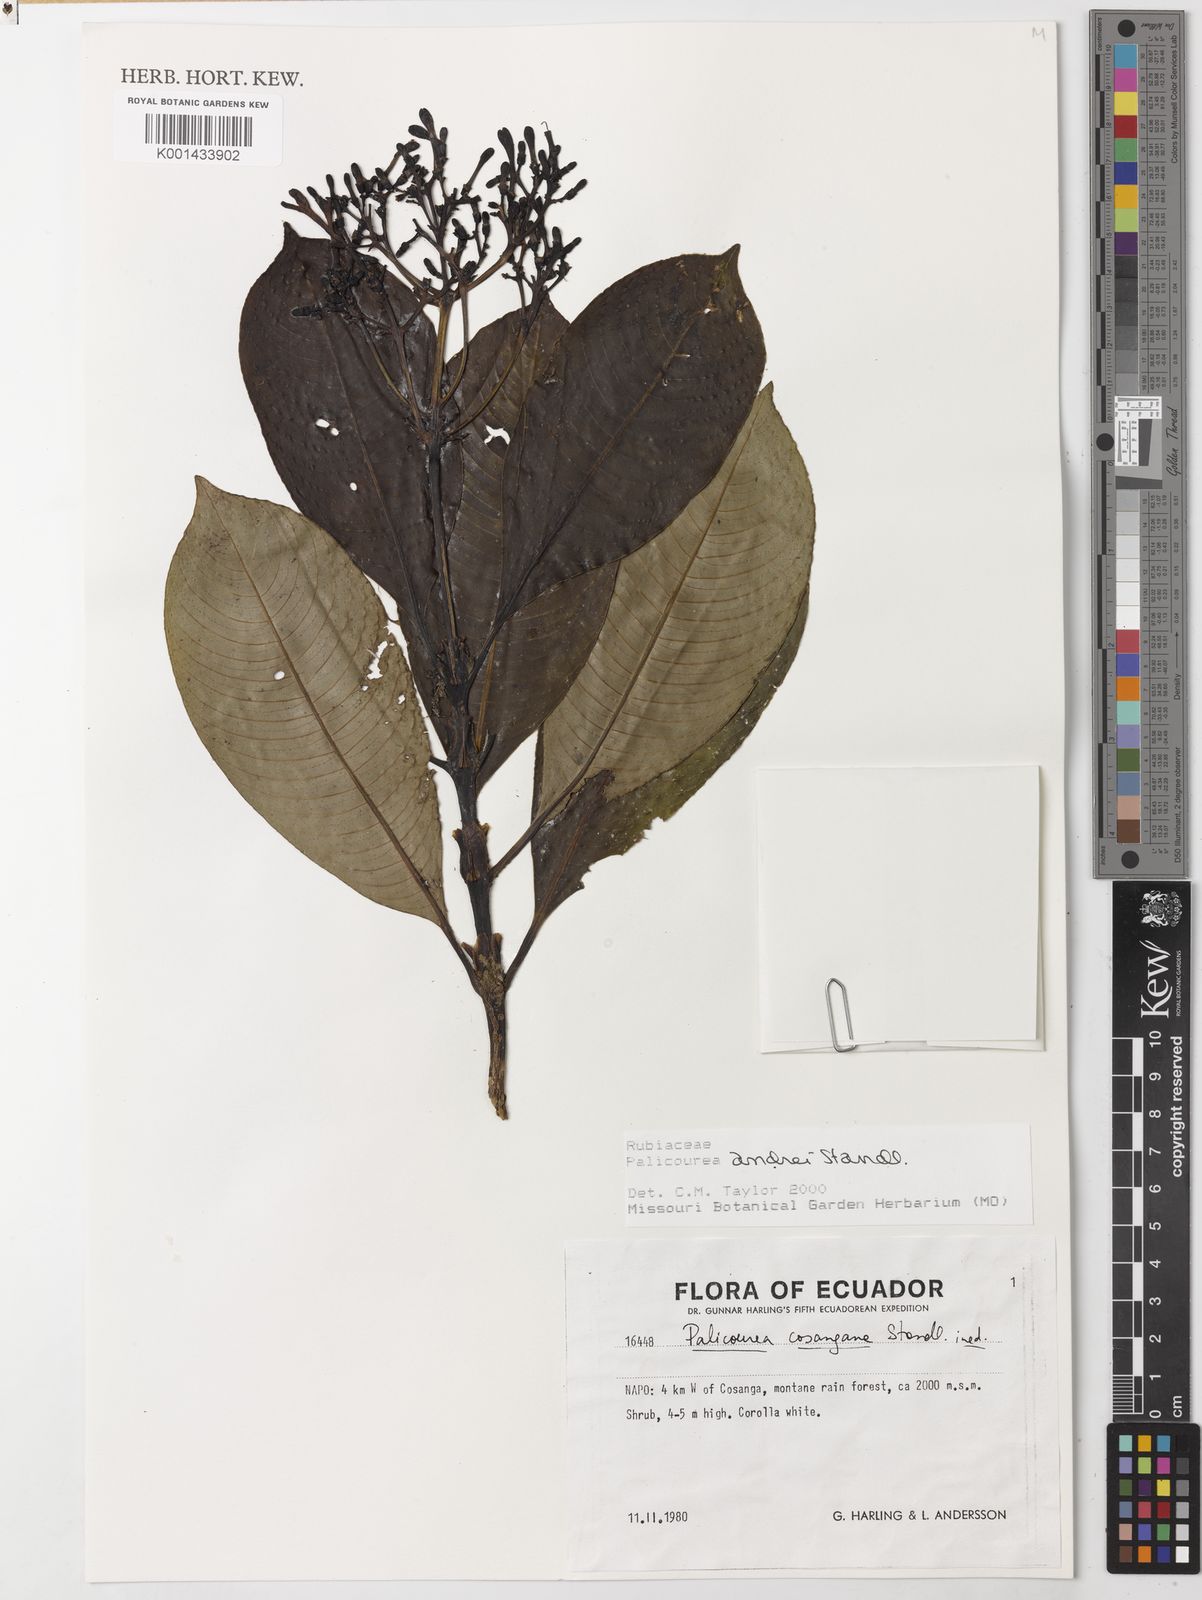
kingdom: Plantae
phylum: Tracheophyta
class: Magnoliopsida
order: Gentianales
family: Rubiaceae
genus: Palicourea
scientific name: Palicourea andrei
